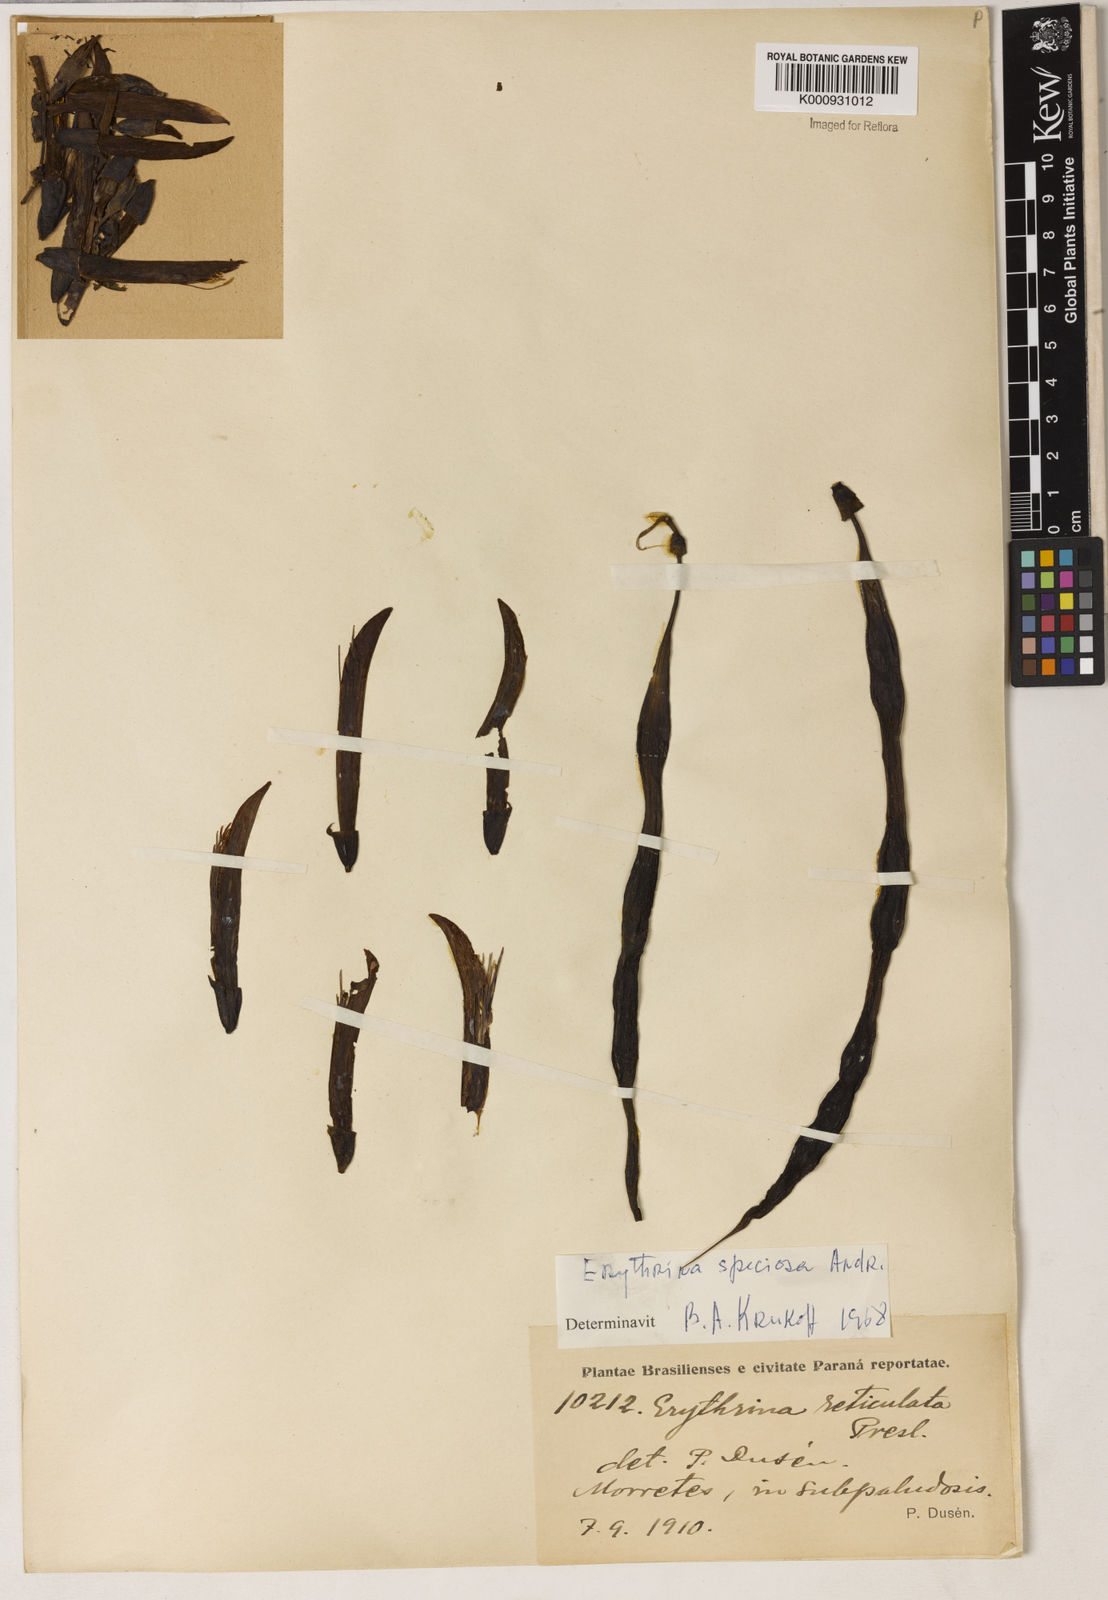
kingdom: Plantae
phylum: Tracheophyta
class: Magnoliopsida
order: Fabales
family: Fabaceae
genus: Erythrina
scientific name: Erythrina speciosa
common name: Coral tree
